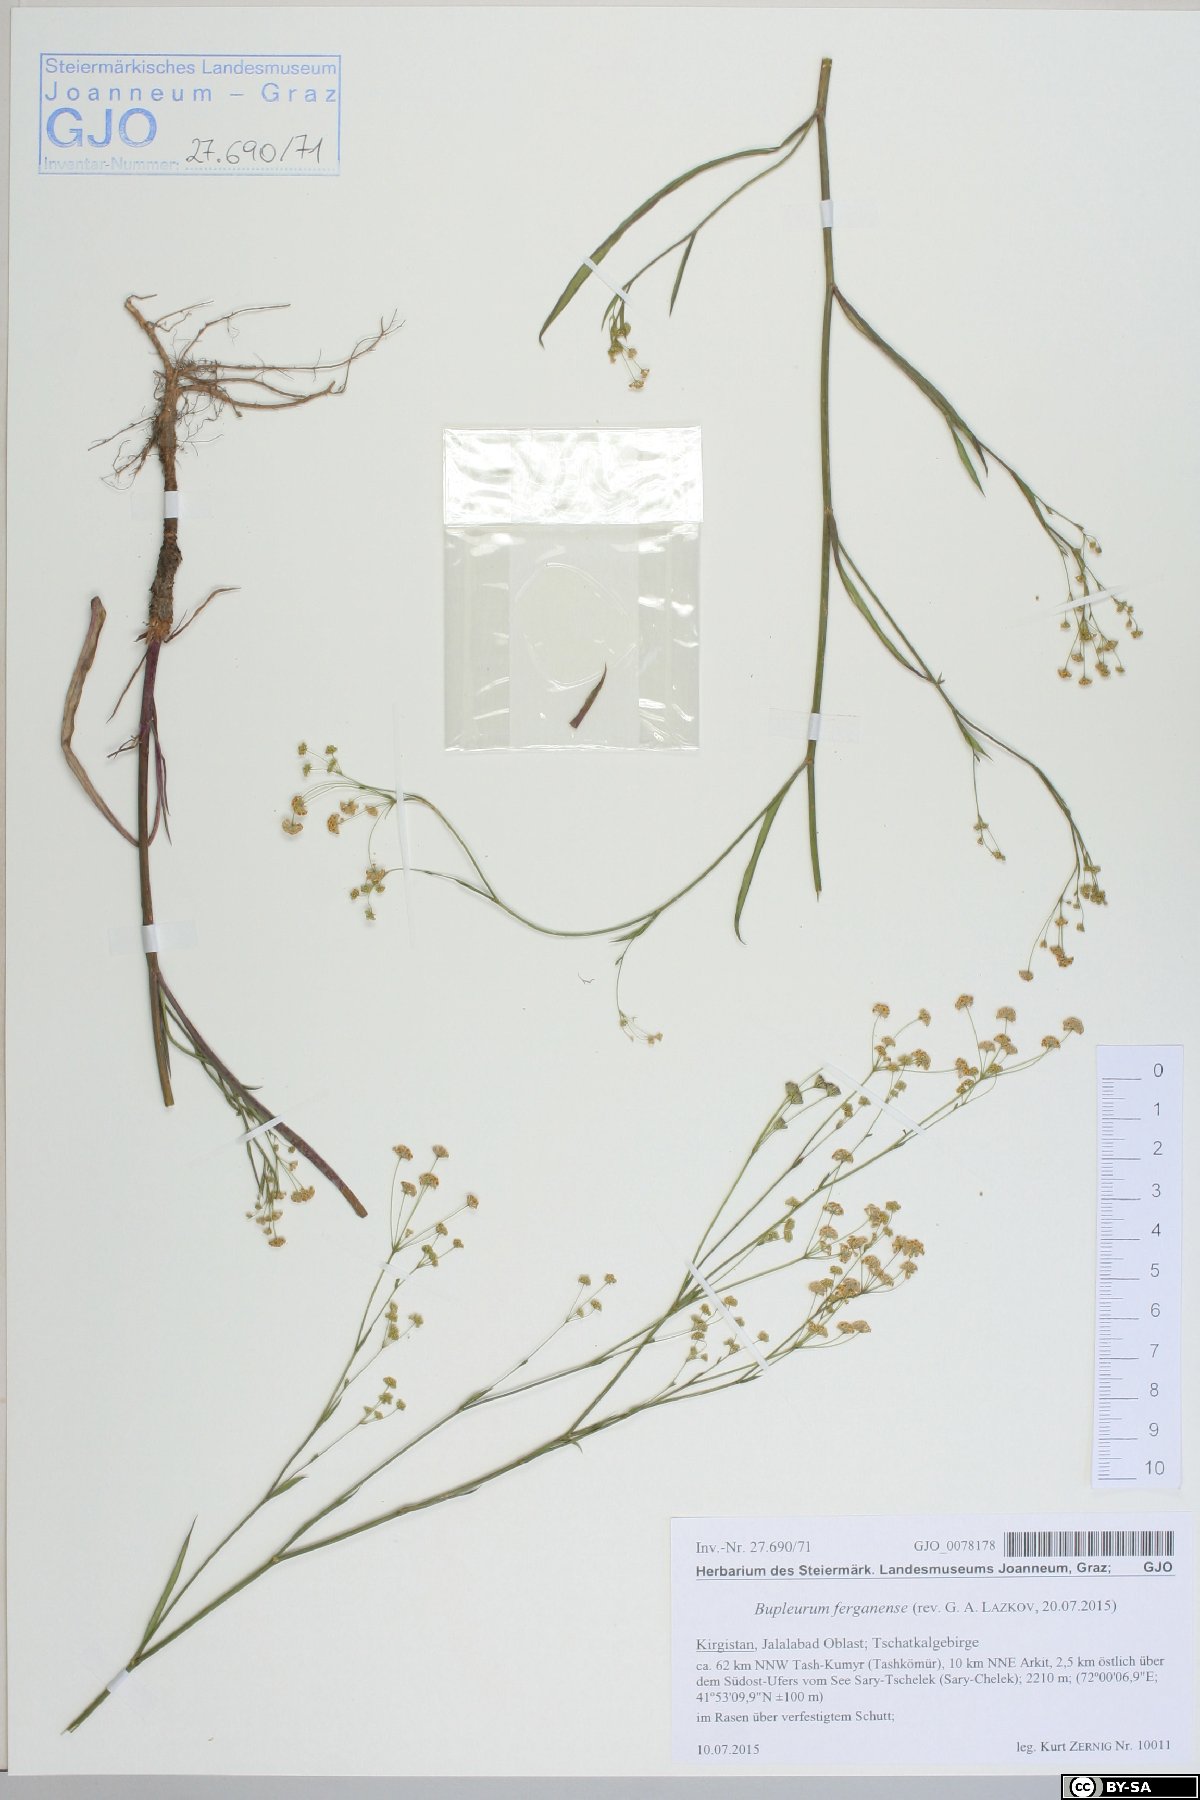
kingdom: Plantae
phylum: Tracheophyta
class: Magnoliopsida
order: Apiales
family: Apiaceae
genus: Bupleurum
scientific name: Bupleurum ferganense
